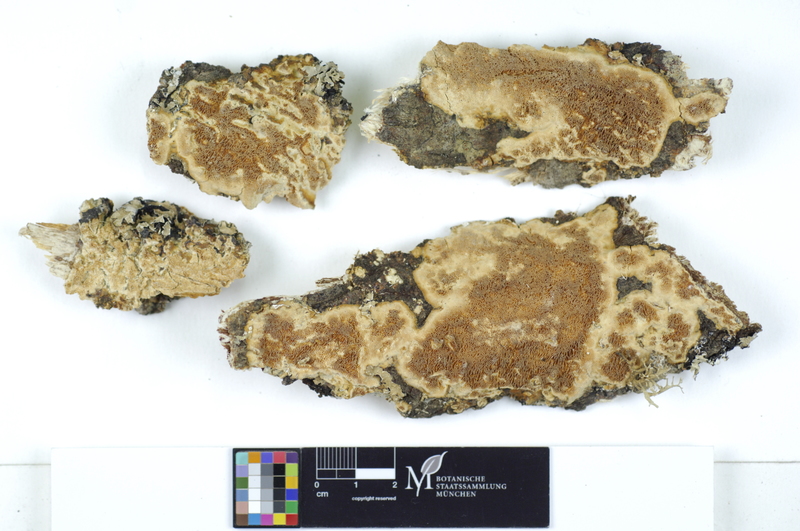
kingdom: Fungi
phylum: Basidiomycota
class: Agaricomycetes
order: Polyporales
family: Irpicaceae
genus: Resiniporus
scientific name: Resiniporus resinascens
